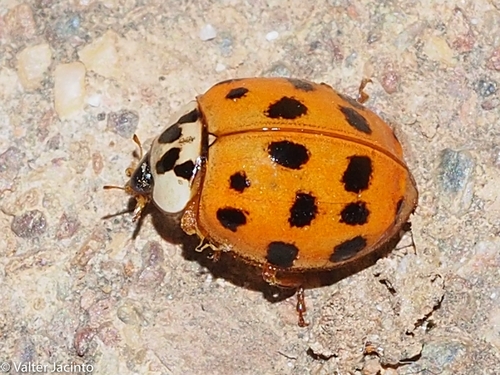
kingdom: Animalia
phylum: Arthropoda
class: Insecta
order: Coleoptera
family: Coccinellidae
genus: Harmonia
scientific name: Harmonia axyridis
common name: Harlequin ladybird
